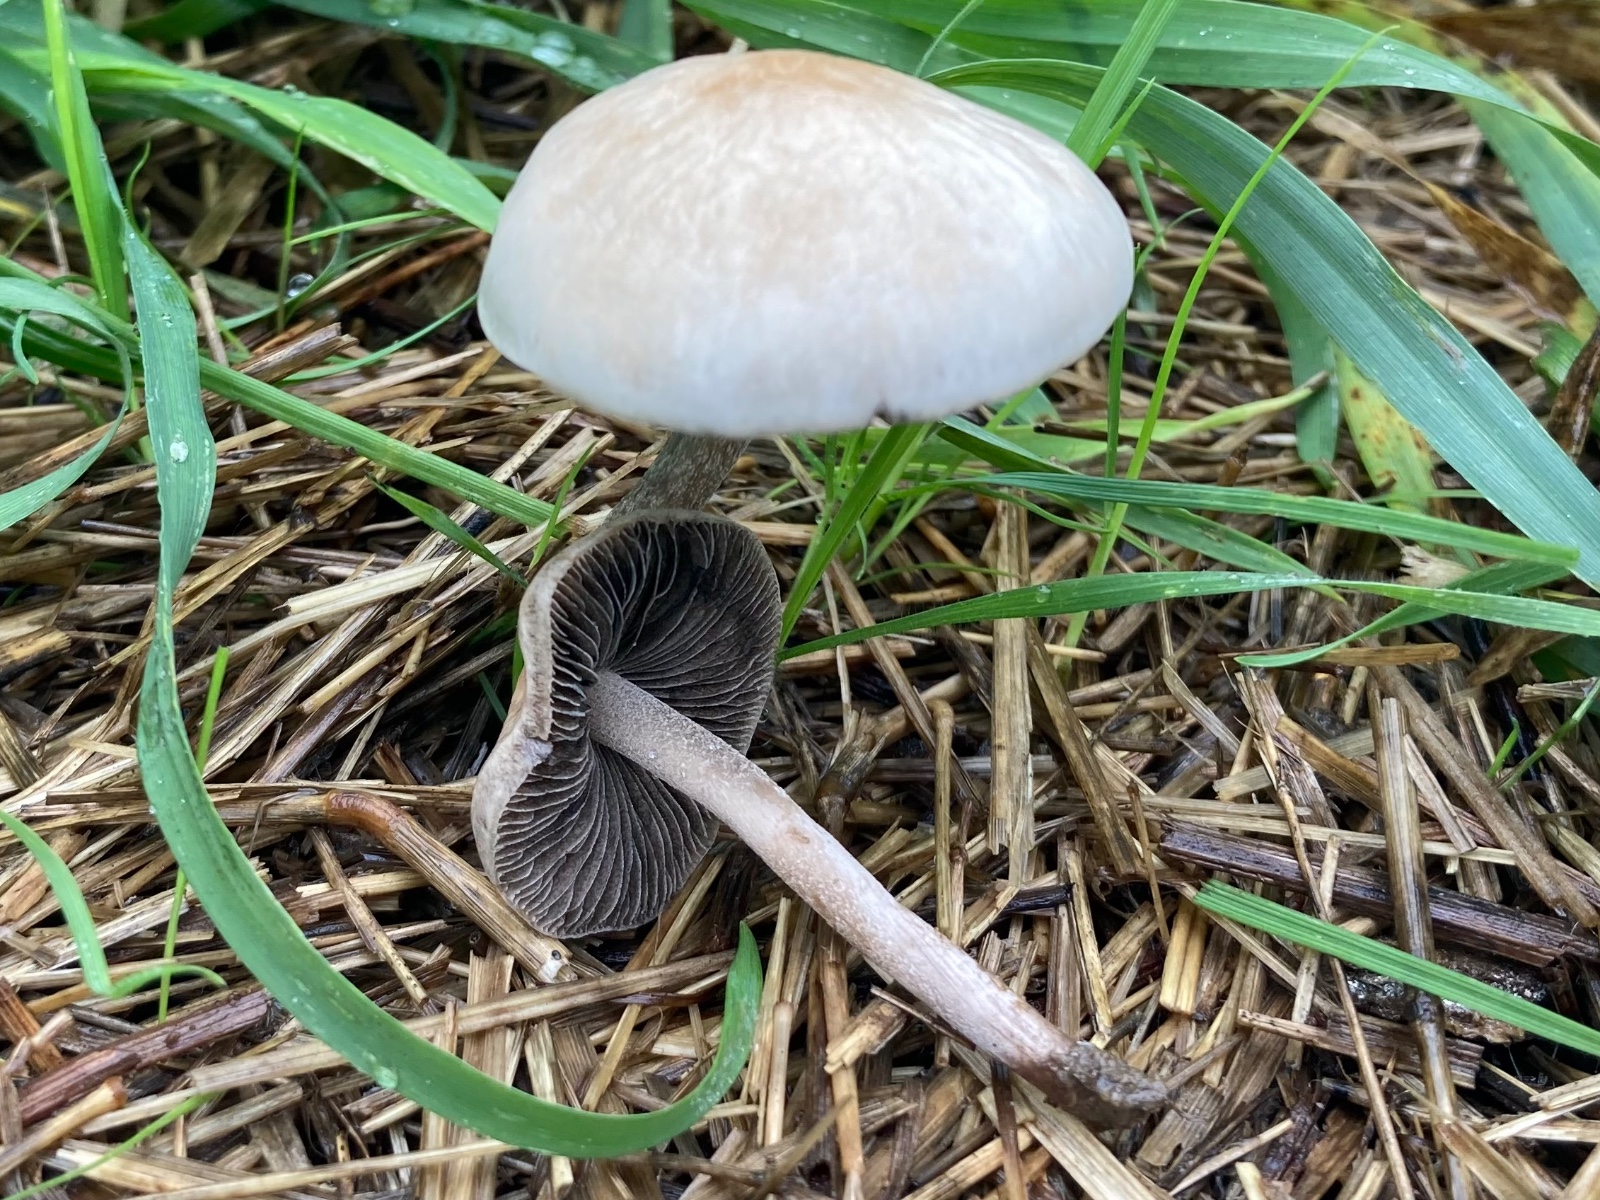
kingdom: Fungi
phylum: Basidiomycota
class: Agaricomycetes
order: Agaricales
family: Bolbitiaceae
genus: Panaeolus
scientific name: Panaeolus olivaceus
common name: lysstokket glanshat
